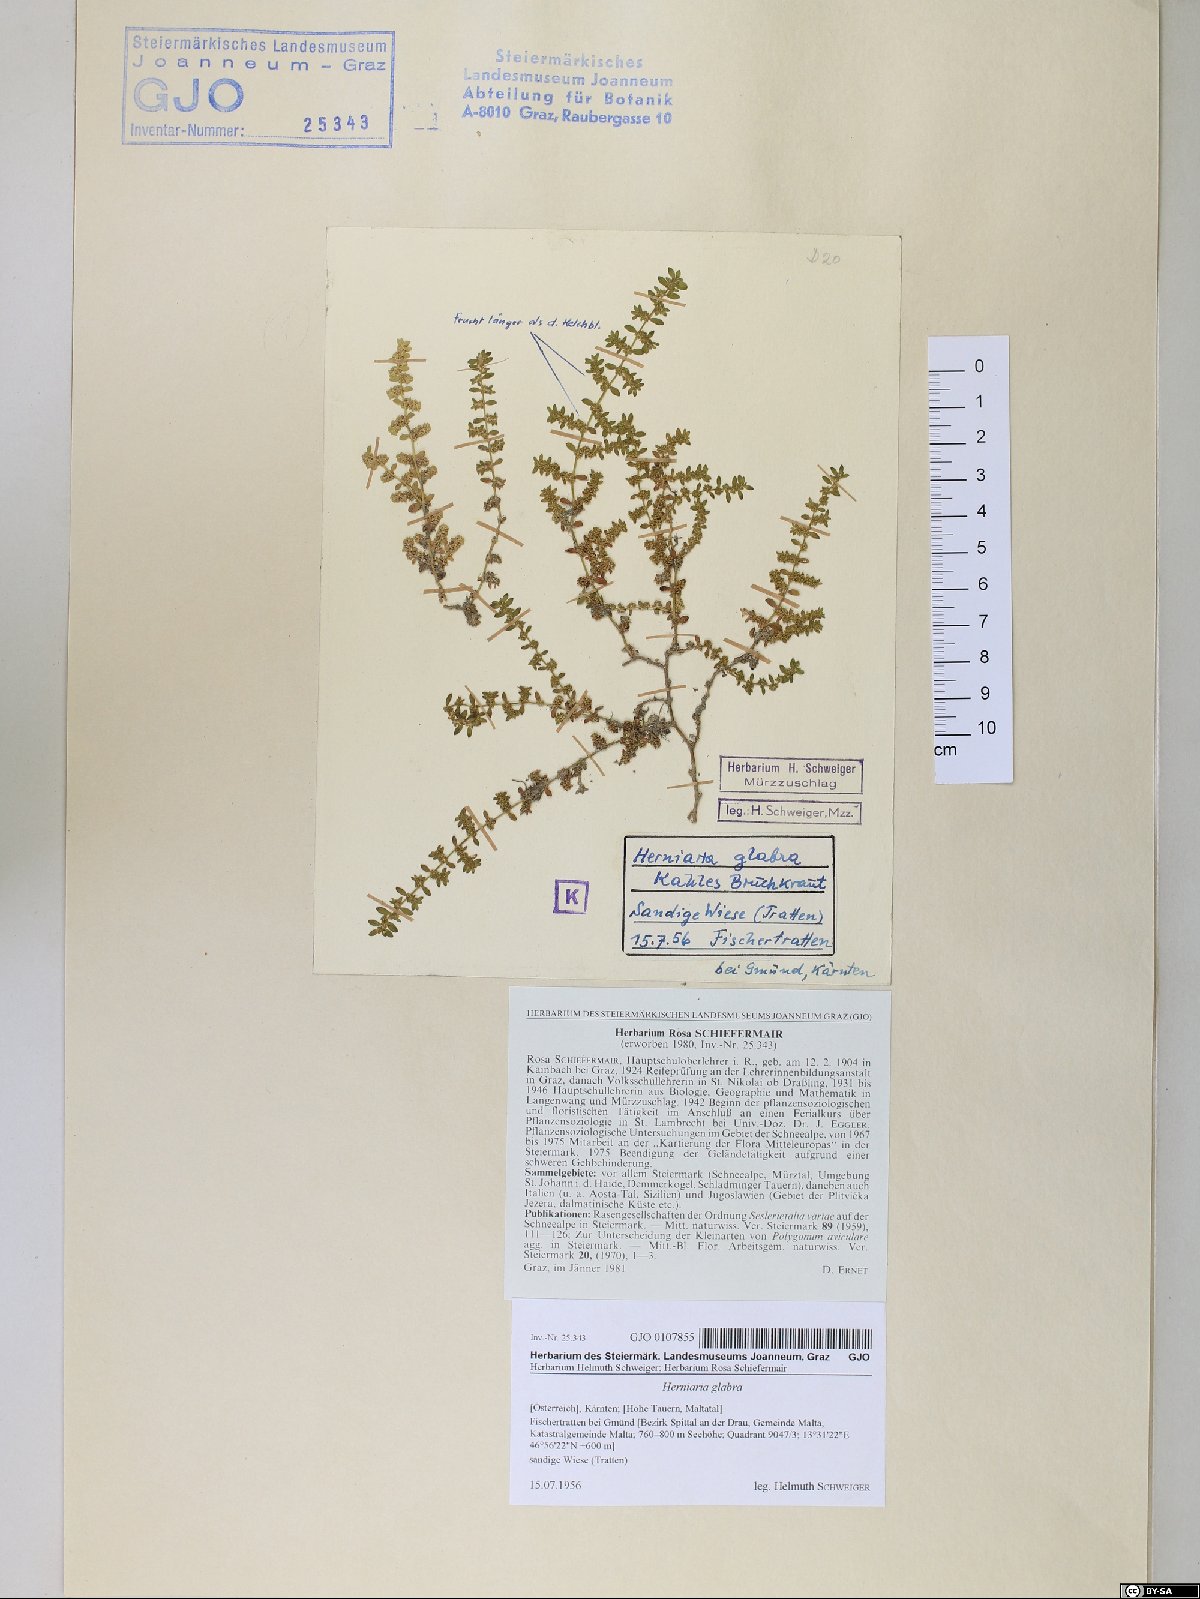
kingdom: Plantae
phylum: Tracheophyta
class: Magnoliopsida
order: Caryophyllales
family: Caryophyllaceae
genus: Herniaria
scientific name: Herniaria glabra
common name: Smooth rupturewort
